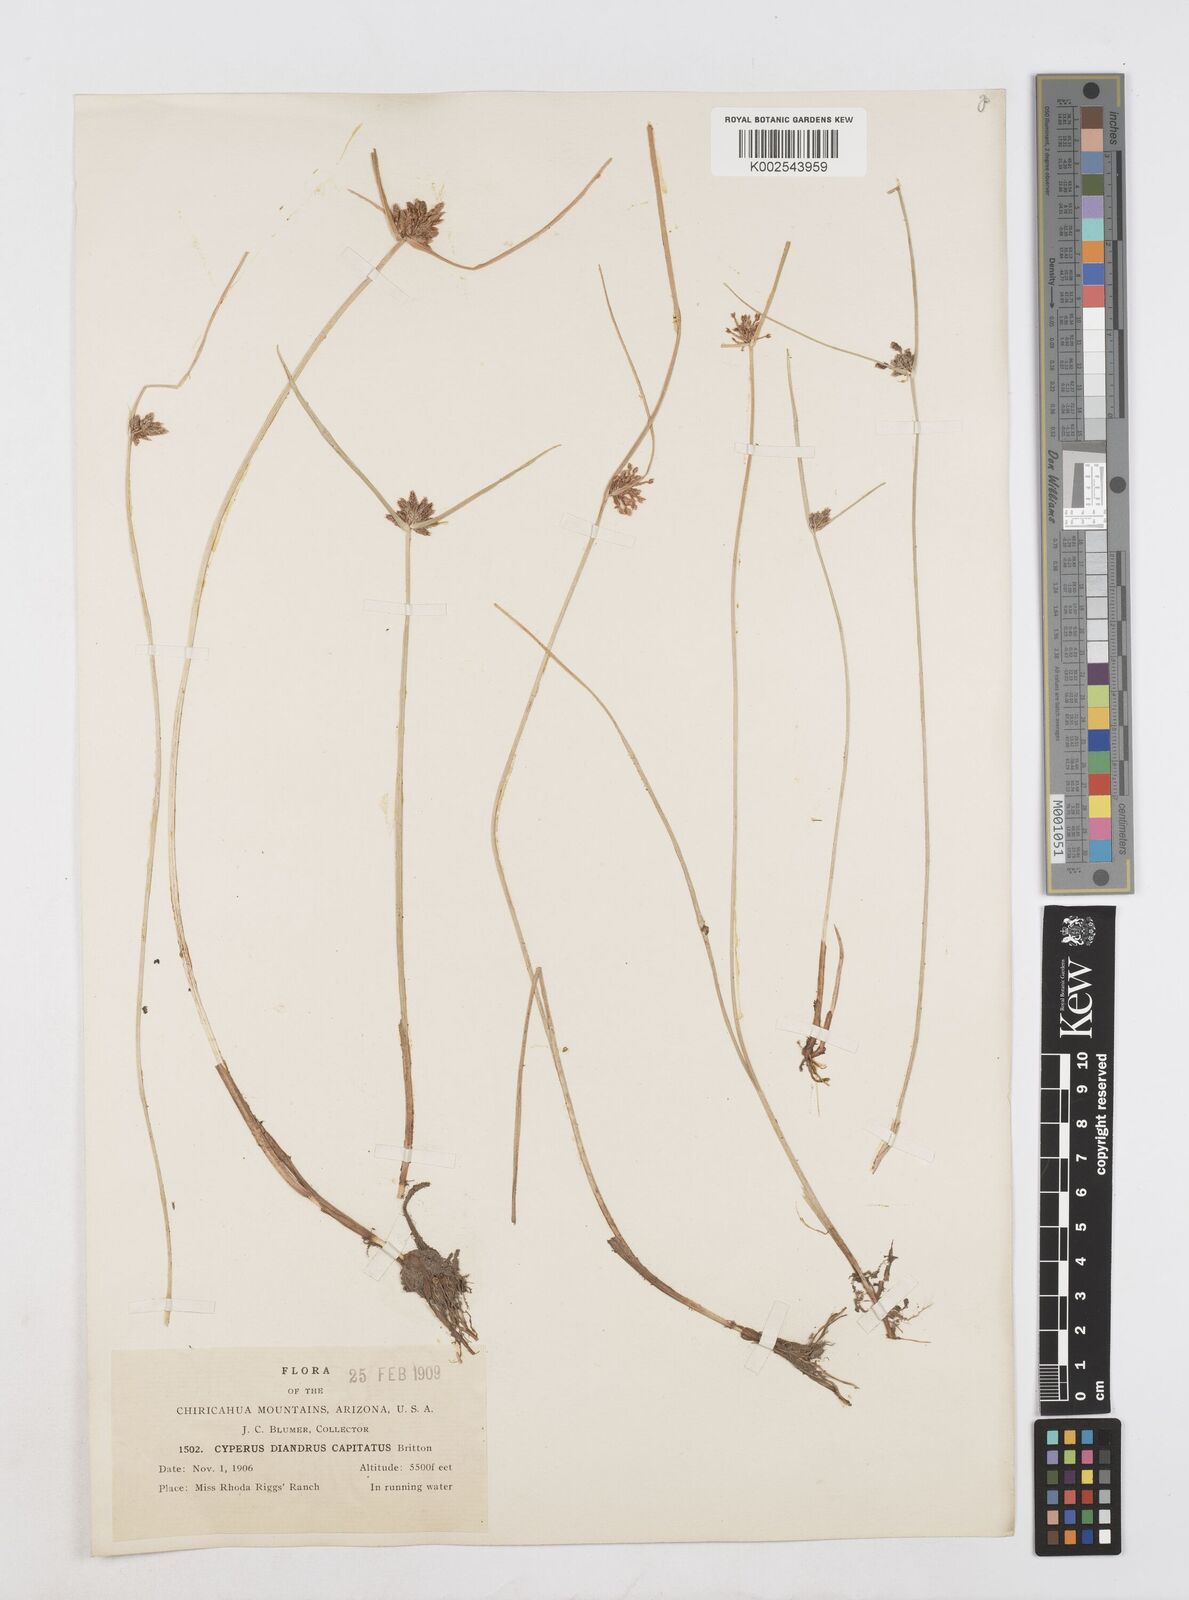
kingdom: Plantae
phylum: Tracheophyta
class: Liliopsida
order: Poales
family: Cyperaceae
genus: Cyperus
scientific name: Cyperus melanostachyus
